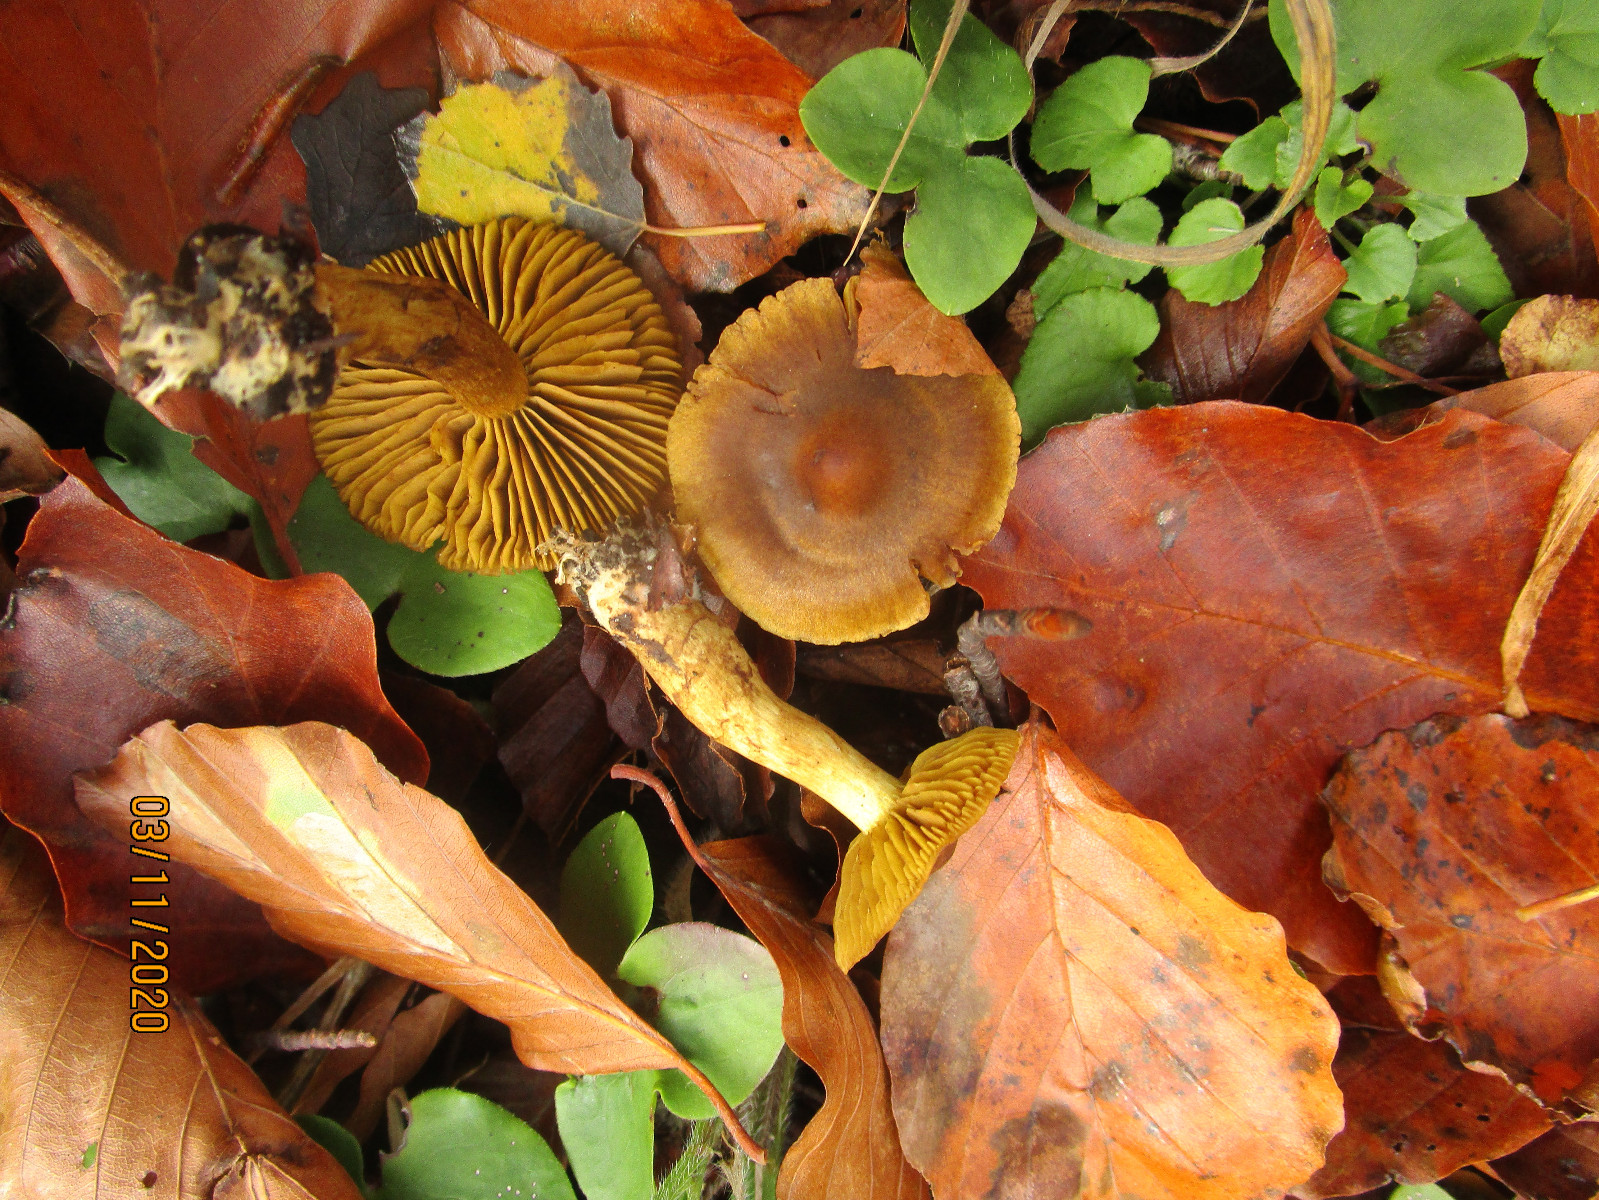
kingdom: Fungi
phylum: Basidiomycota
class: Agaricomycetes
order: Agaricales
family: Cortinariaceae
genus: Cortinarius
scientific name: Cortinarius olivaceofuscus
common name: olivenbrun slørhat
